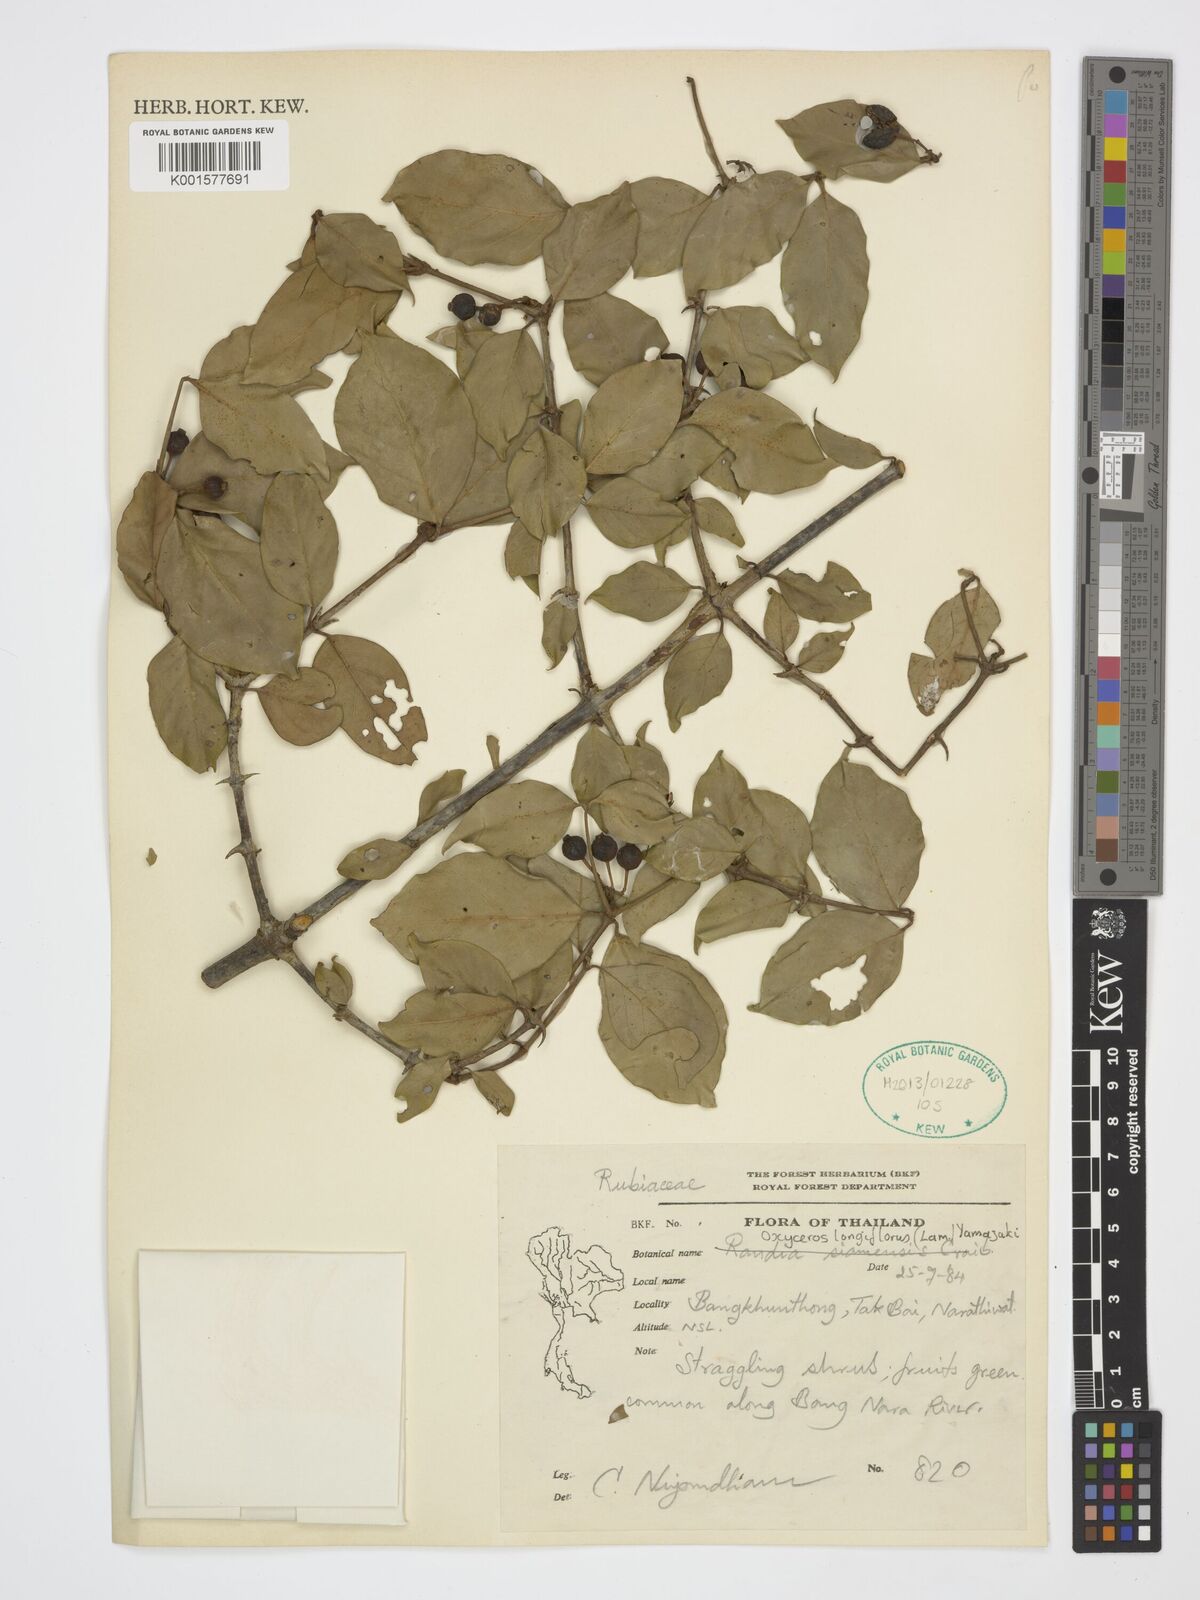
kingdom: Plantae
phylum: Tracheophyta
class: Magnoliopsida
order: Gentianales
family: Rubiaceae
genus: Oxyceros
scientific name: Oxyceros longiflorus
